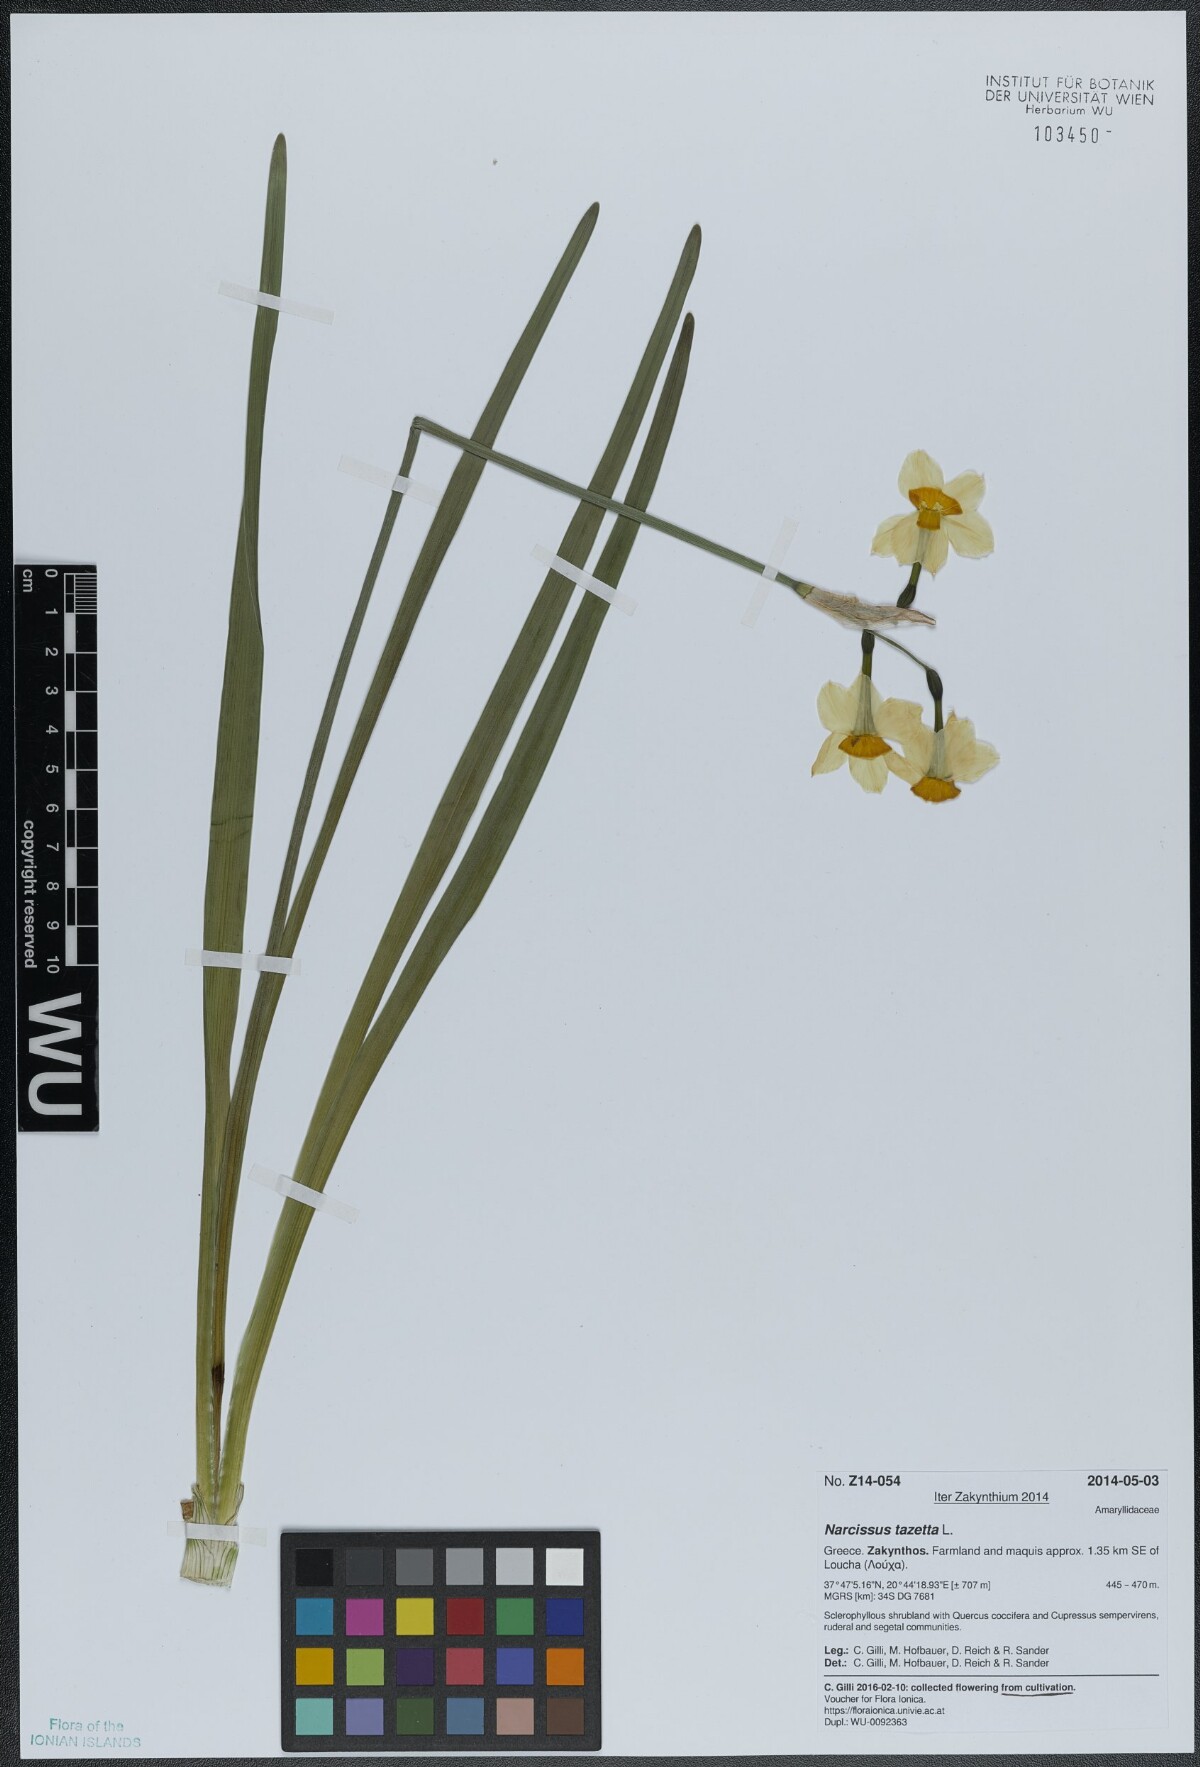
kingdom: Plantae
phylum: Tracheophyta
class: Liliopsida
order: Asparagales
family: Amaryllidaceae
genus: Narcissus
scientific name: Narcissus tazetta
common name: Bunch-flowered daffodil
